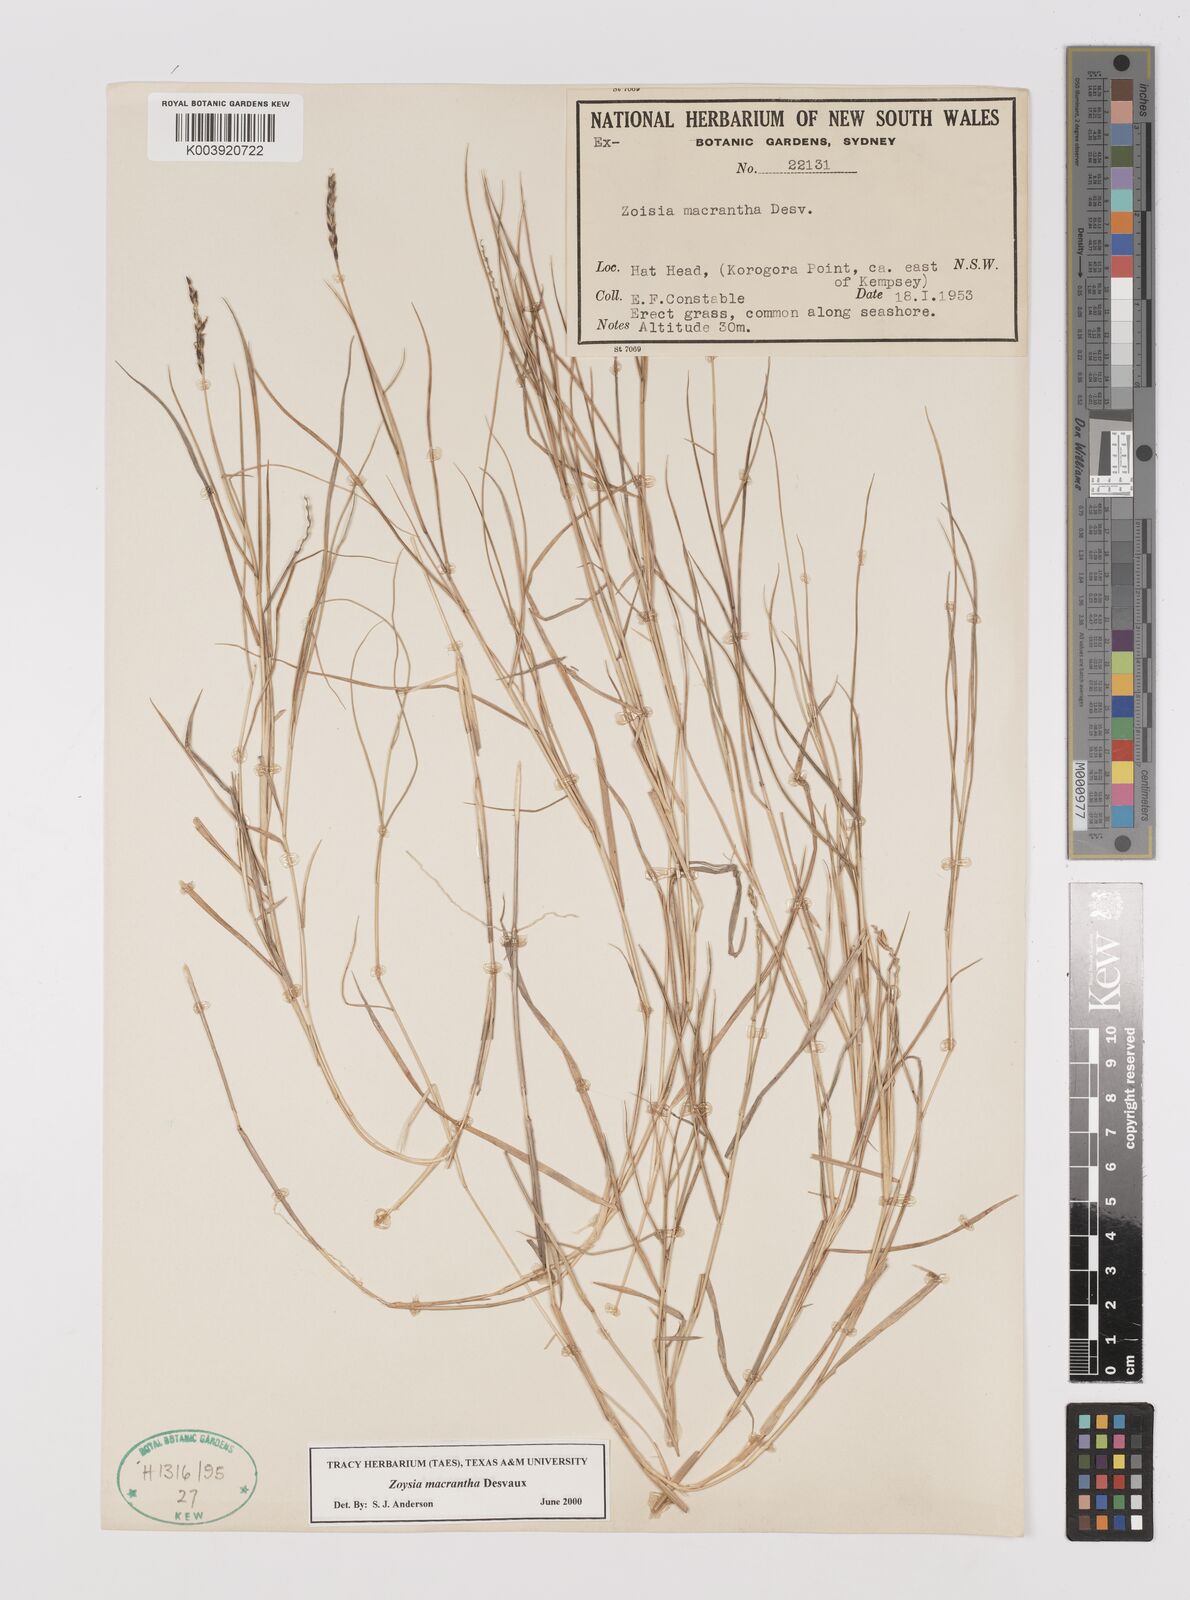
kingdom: Plantae
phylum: Tracheophyta
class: Liliopsida
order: Poales
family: Poaceae
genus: Zoysia
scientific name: Zoysia macrantha
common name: Korean lawn grass
